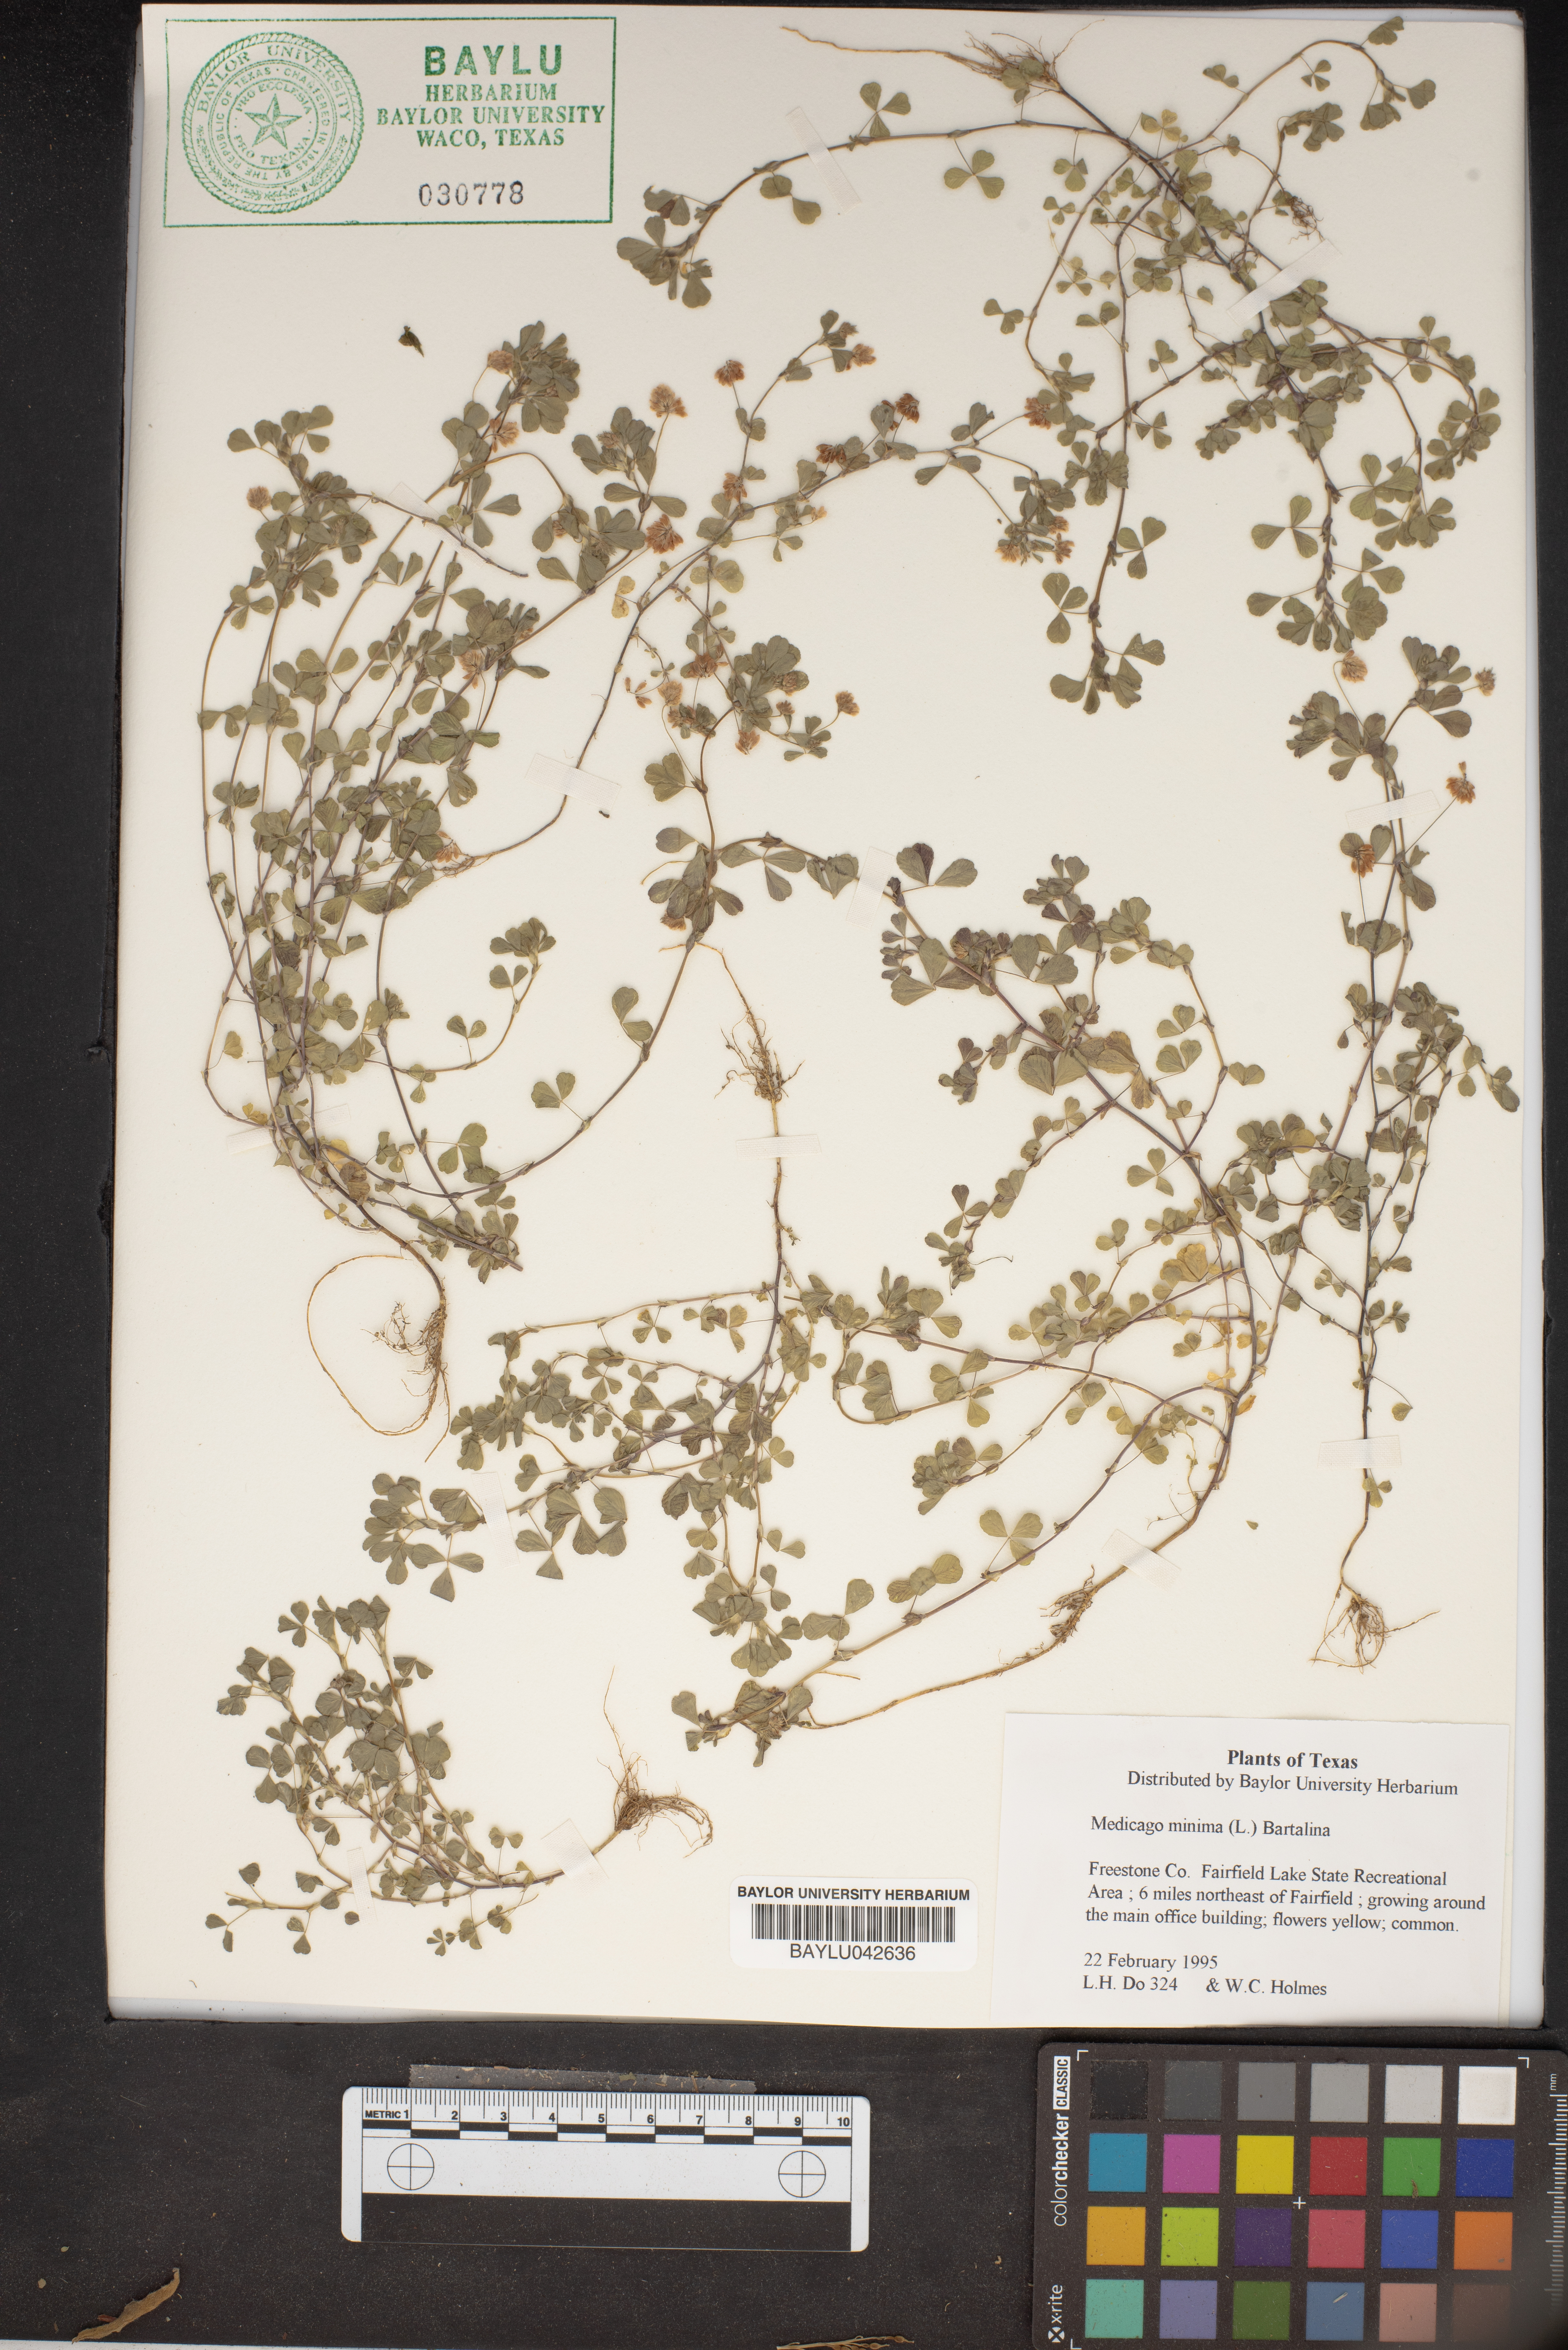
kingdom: Plantae
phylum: Tracheophyta
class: Magnoliopsida
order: Fabales
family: Fabaceae
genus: Medicago
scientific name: Medicago minima
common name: Little bur-clover
